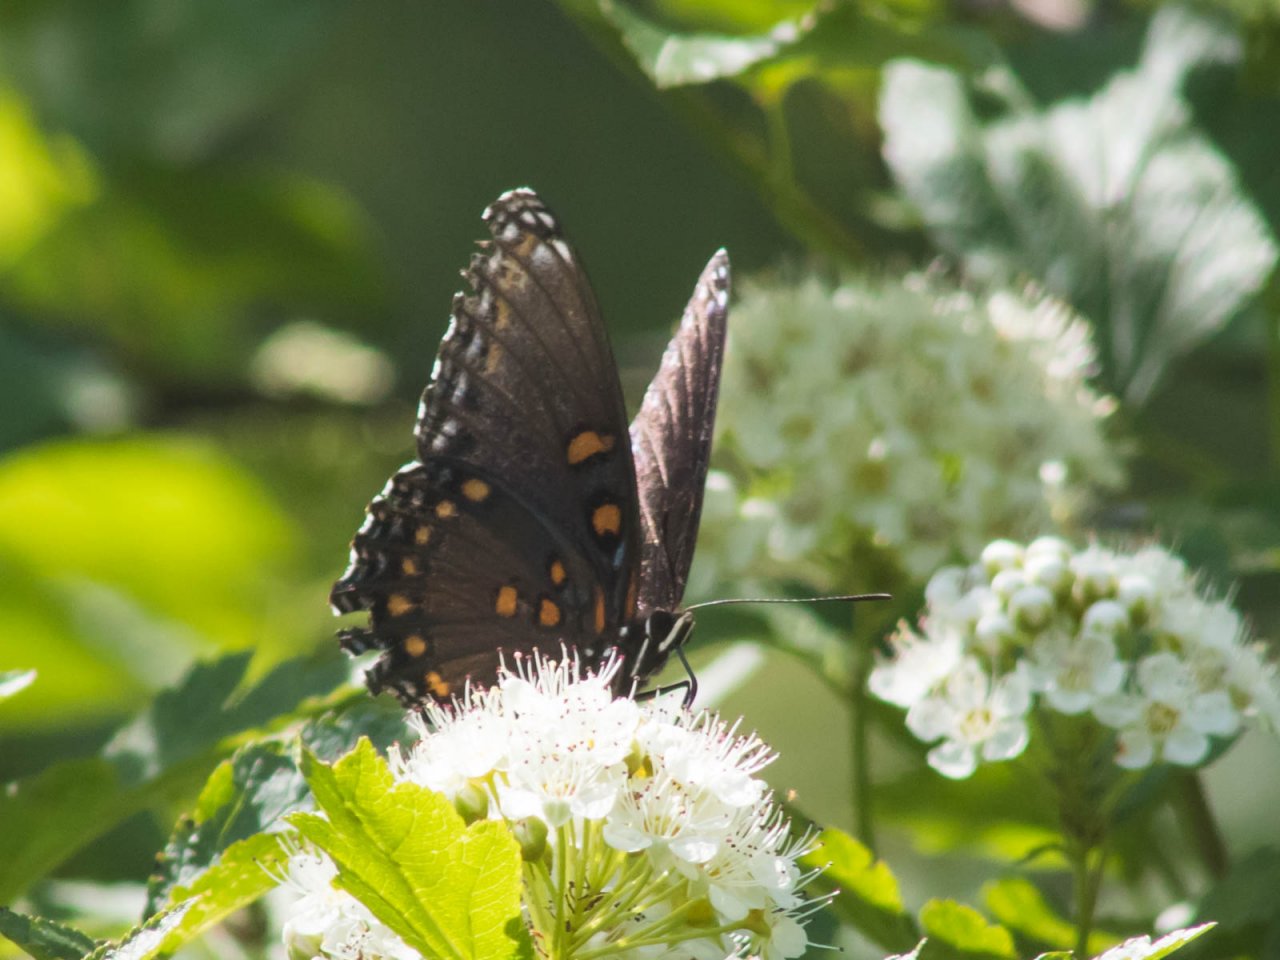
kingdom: Animalia
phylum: Arthropoda
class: Insecta
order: Lepidoptera
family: Nymphalidae
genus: Limenitis
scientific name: Limenitis astyanax
